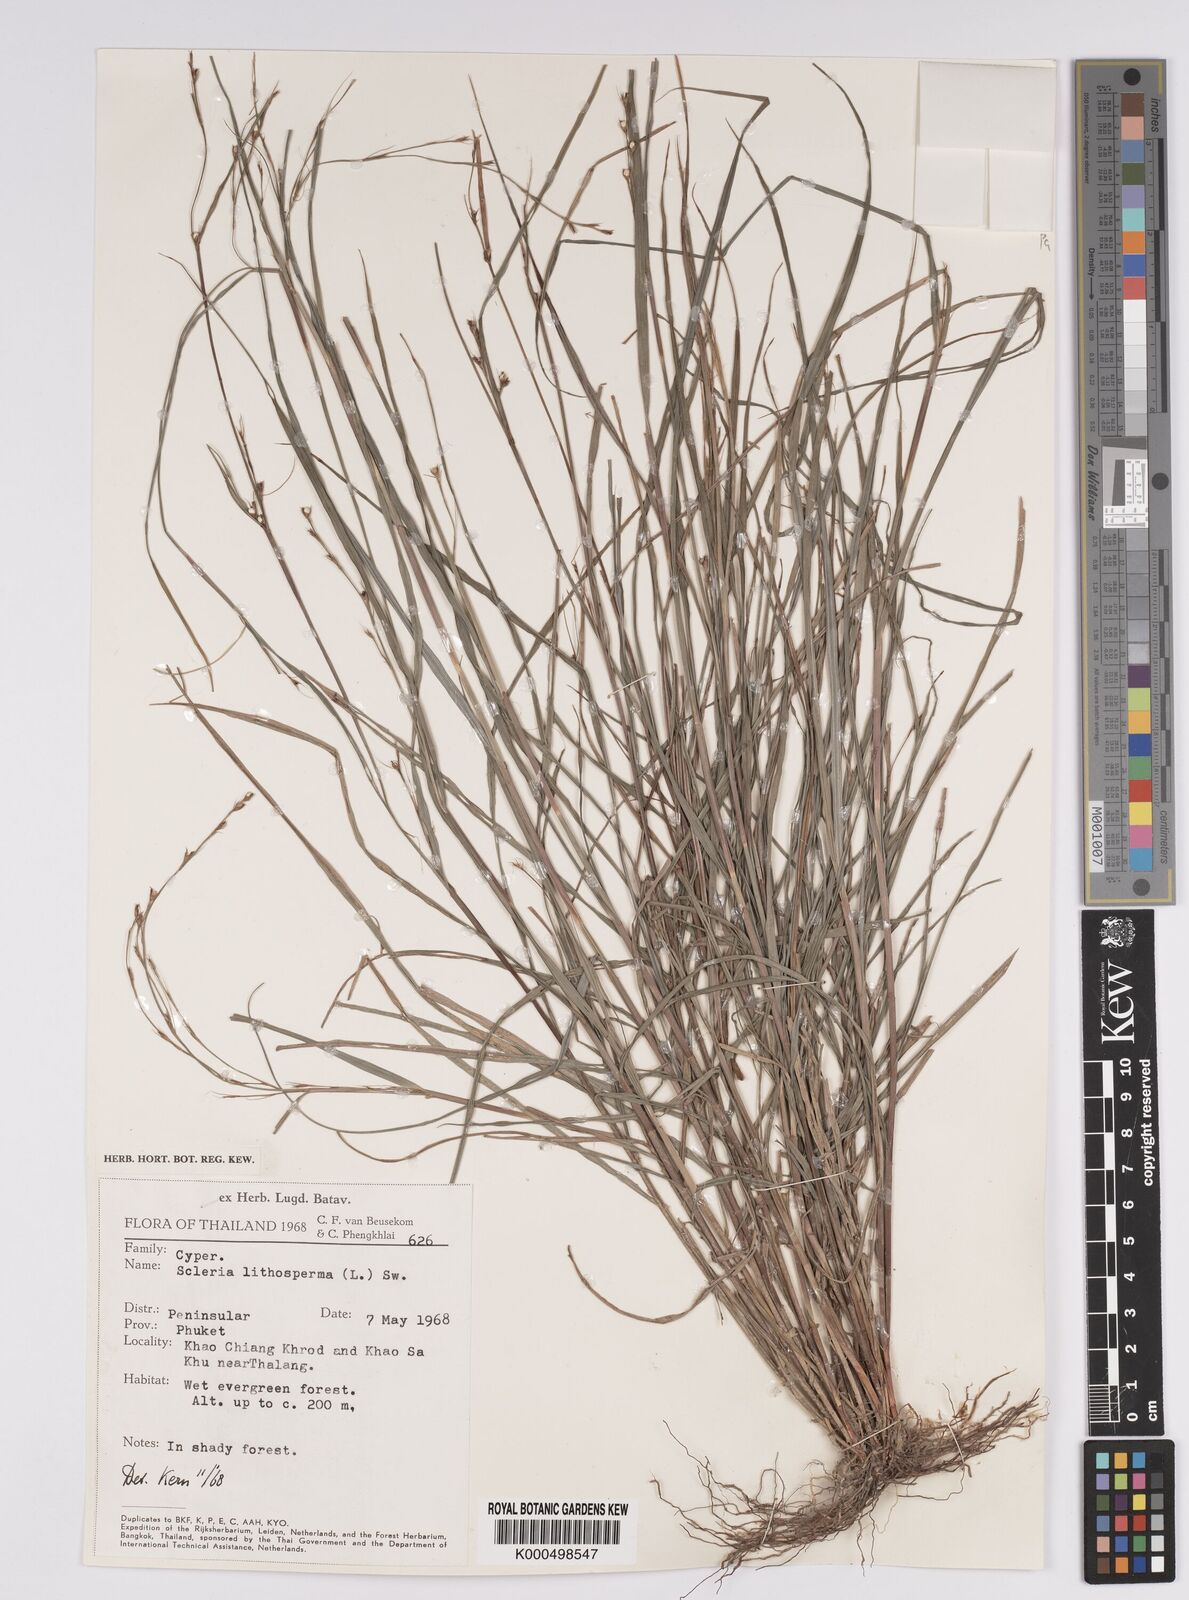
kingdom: Plantae
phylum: Tracheophyta
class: Liliopsida
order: Poales
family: Cyperaceae
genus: Scleria
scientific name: Scleria lithosperma
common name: Florida keys nut-rush
